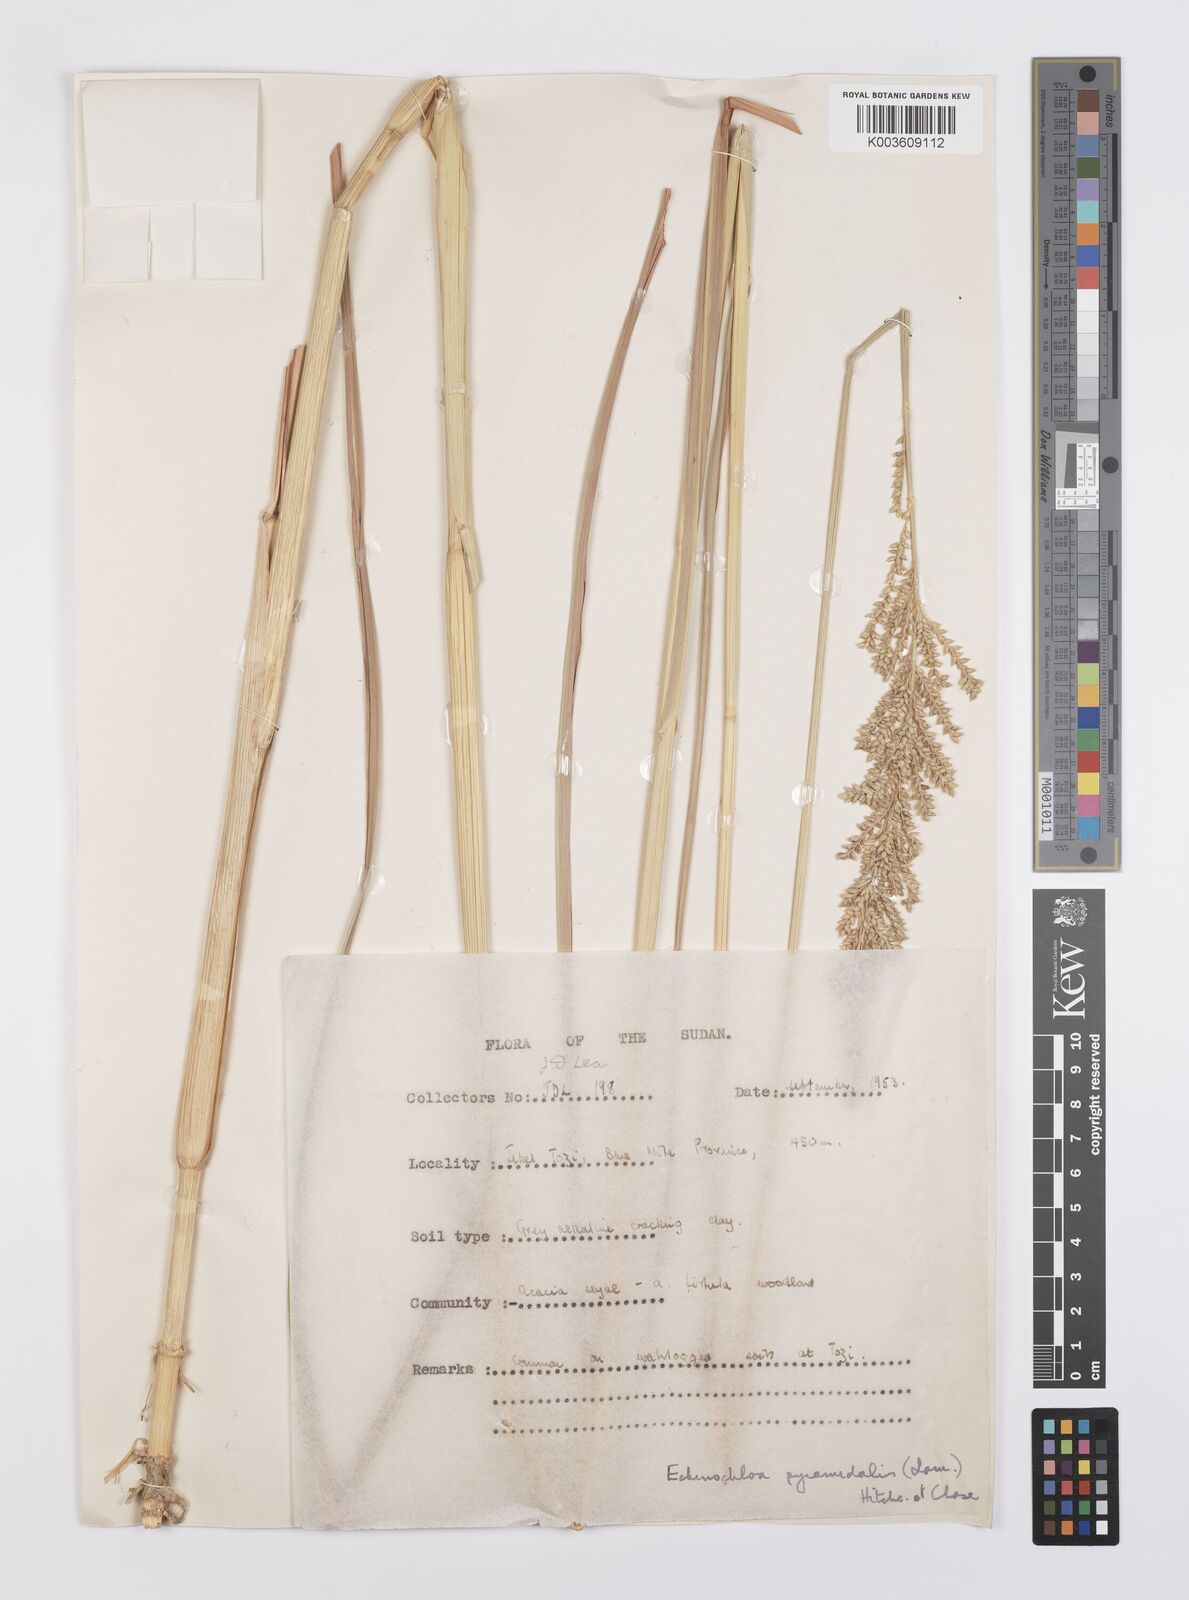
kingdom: Plantae
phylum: Tracheophyta
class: Liliopsida
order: Poales
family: Poaceae
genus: Echinochloa
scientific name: Echinochloa pyramidalis
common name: Antelope grass
